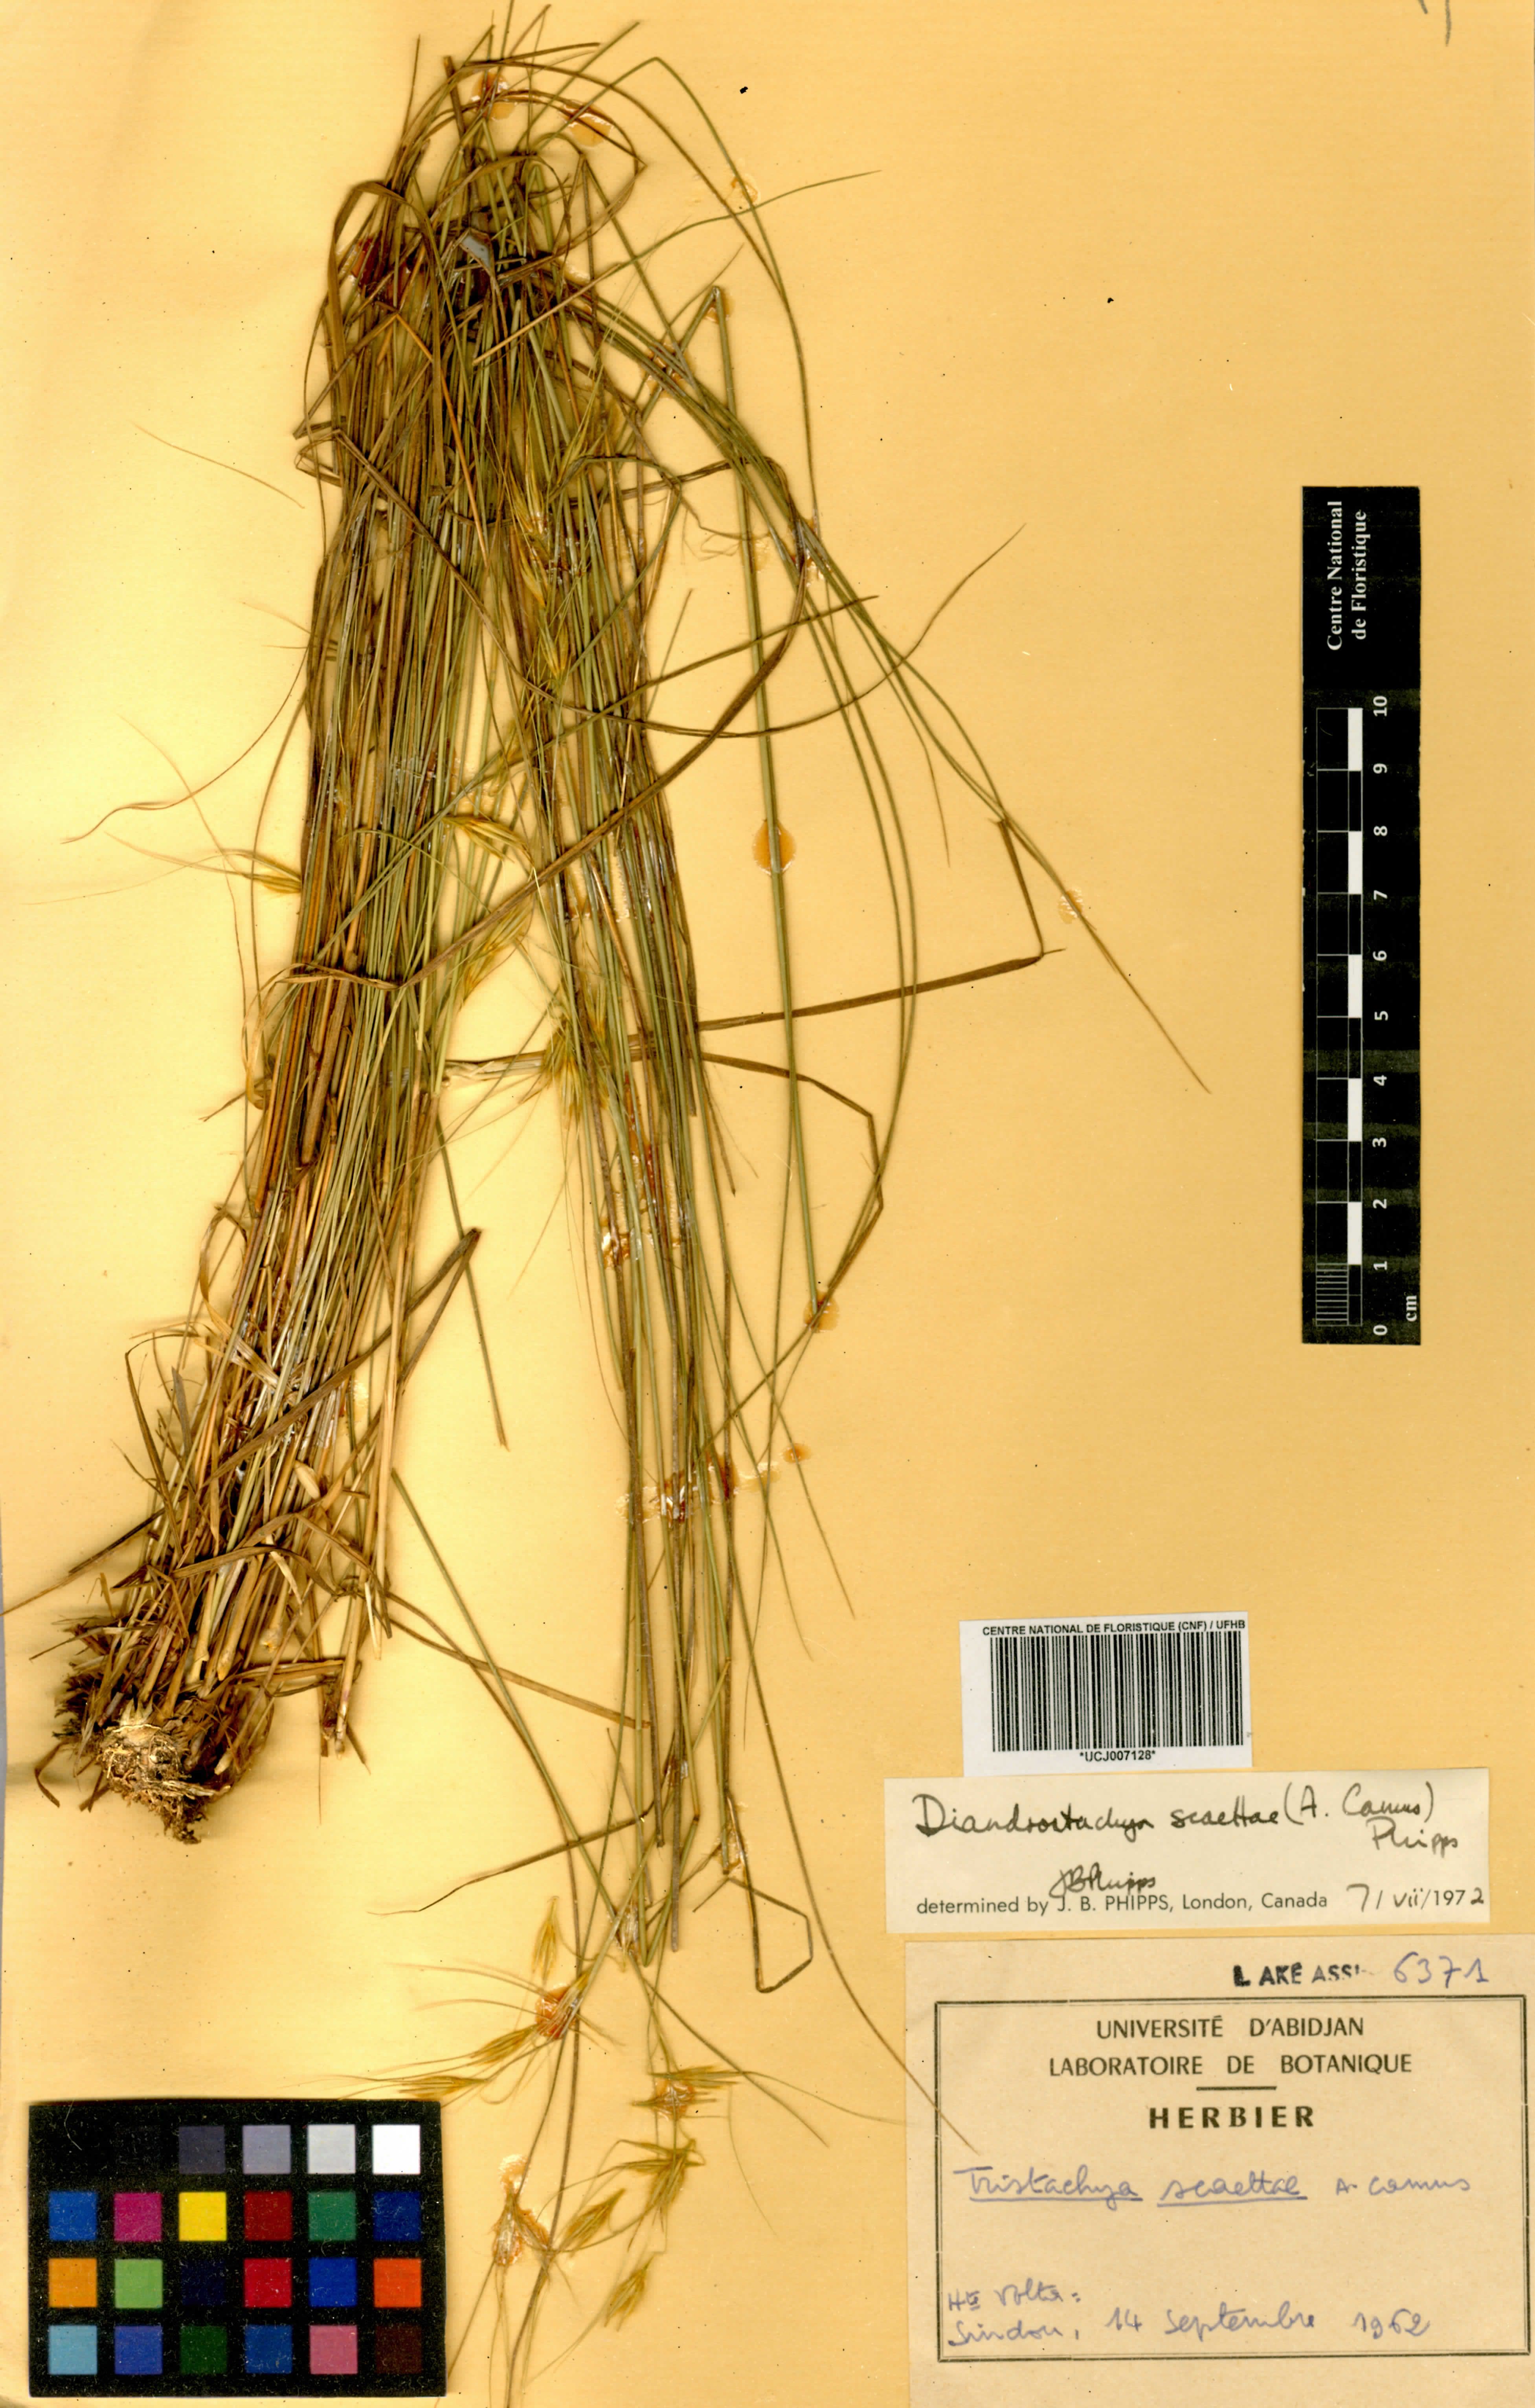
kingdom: Plantae
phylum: Tracheophyta
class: Liliopsida
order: Poales
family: Poaceae
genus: Loudetiopsis
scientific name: Loudetiopsis scaettae
